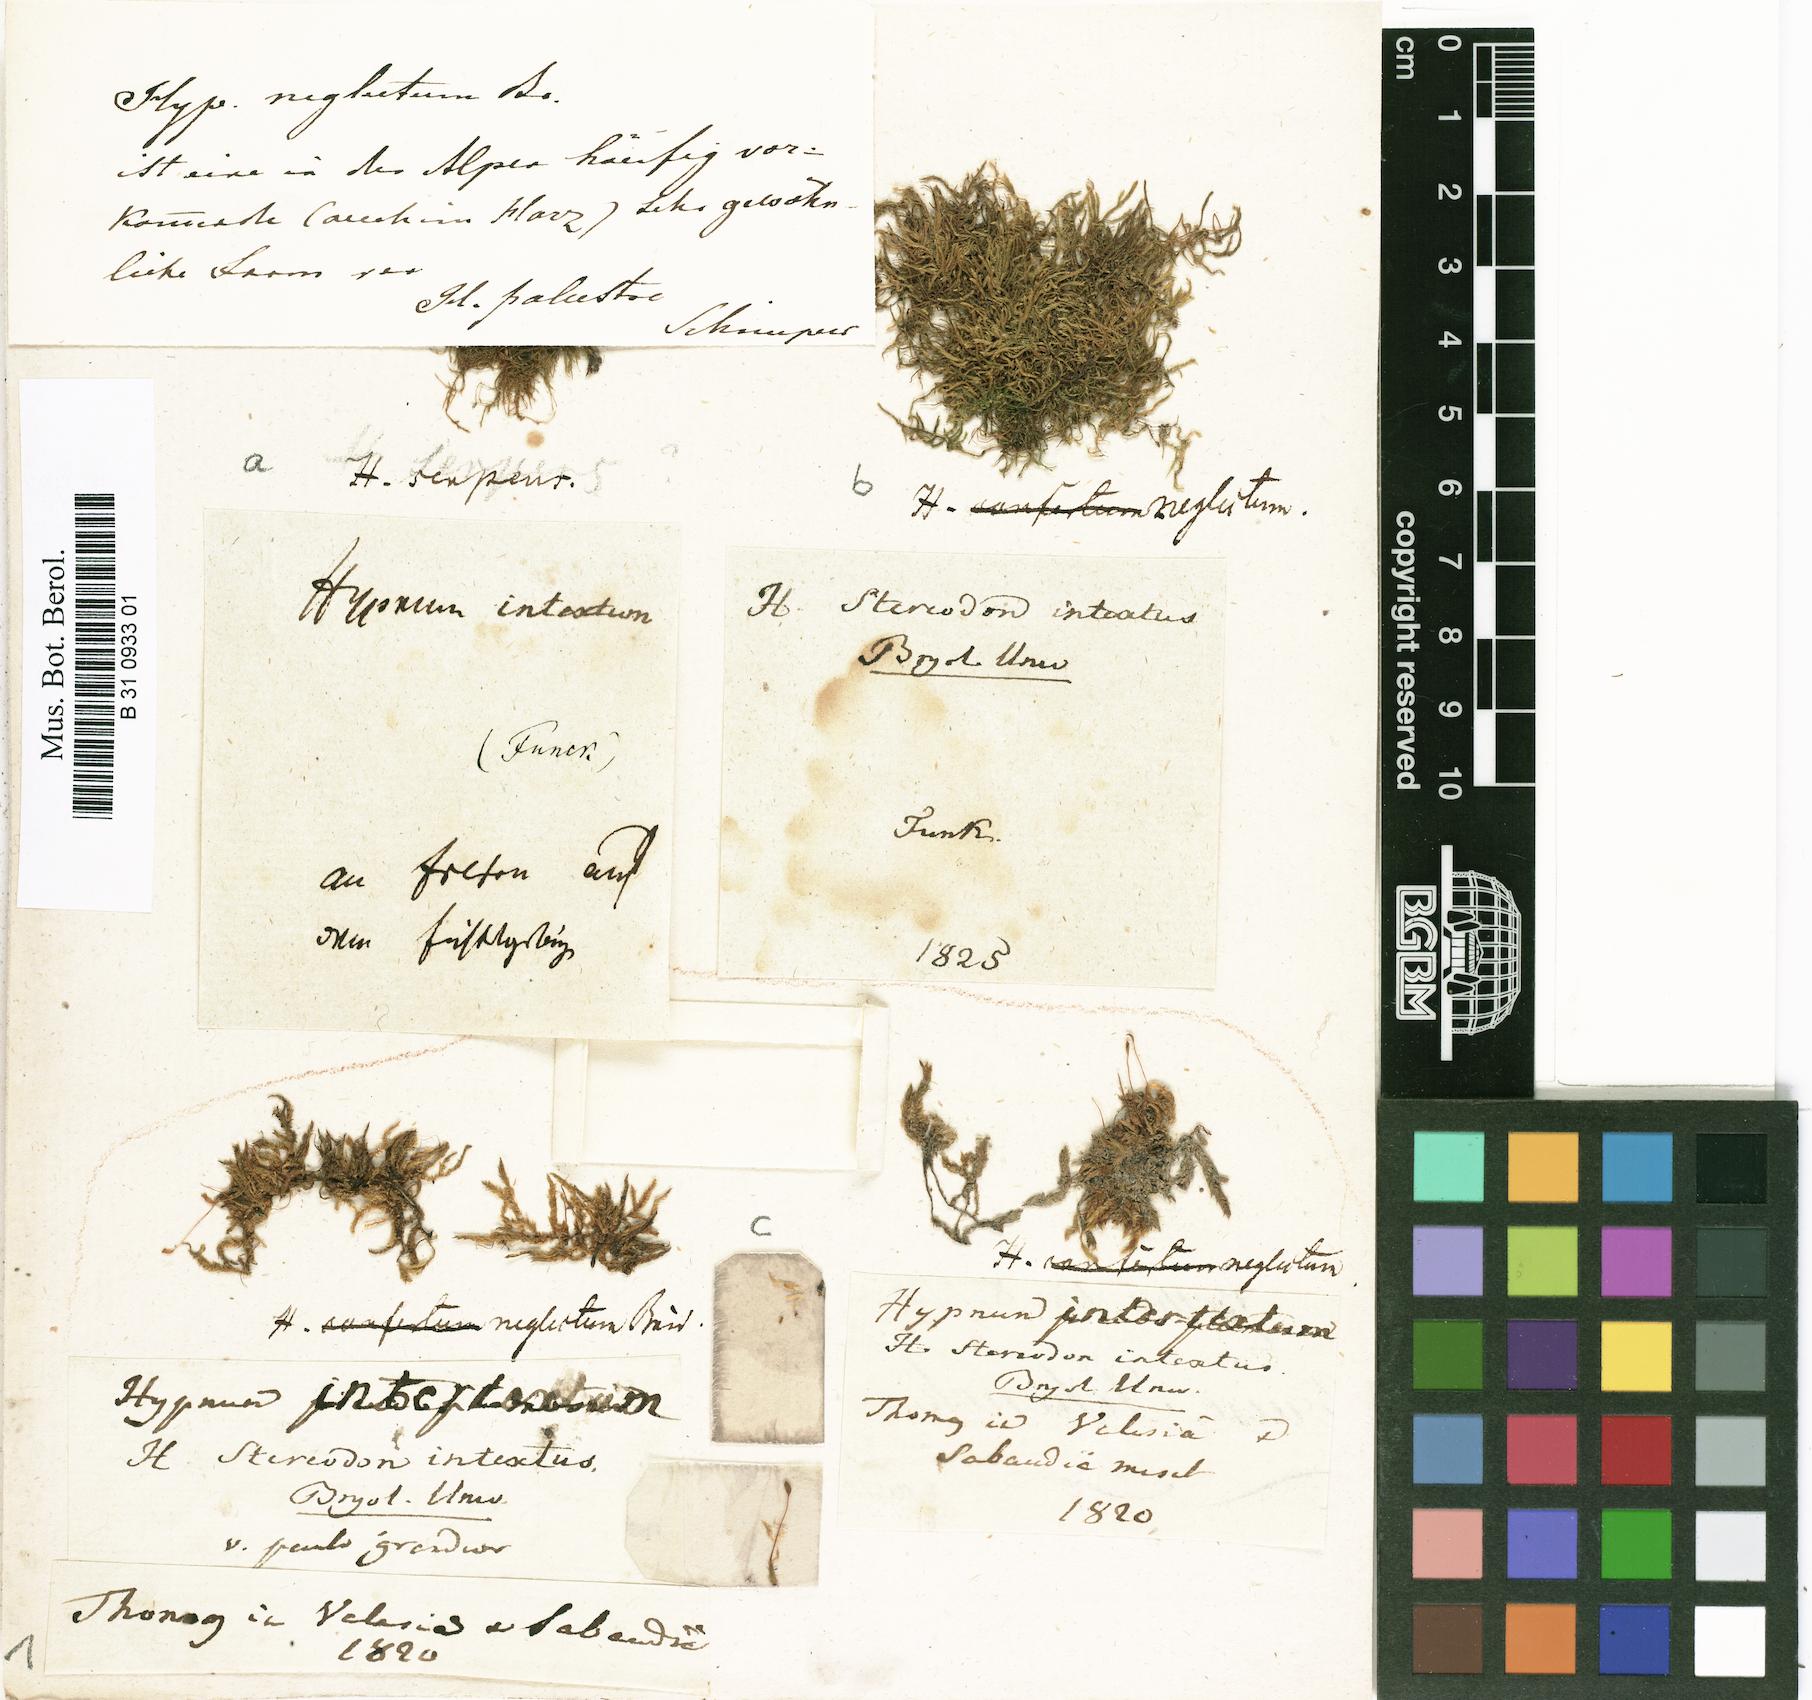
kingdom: Plantae
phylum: Bryophyta
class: Bryopsida
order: Hypnales
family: Hypnaceae
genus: Hypnum
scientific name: Hypnum intextum
